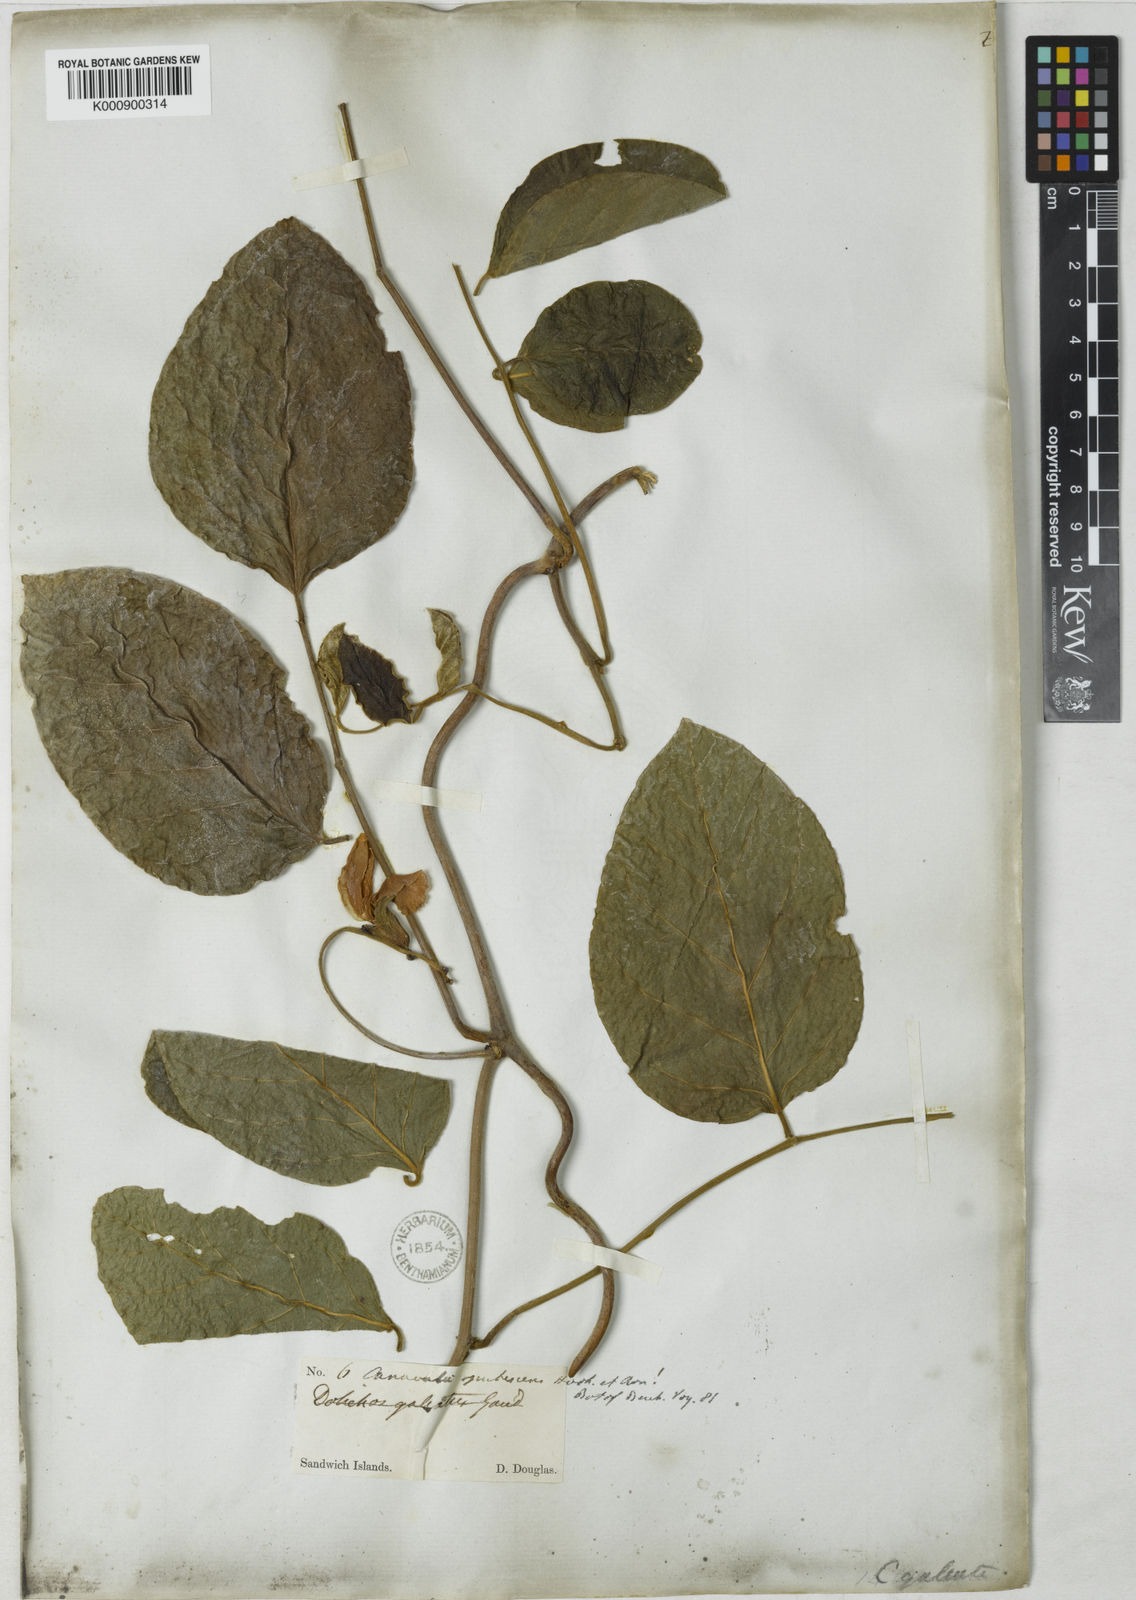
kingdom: Plantae
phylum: Tracheophyta
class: Magnoliopsida
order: Fabales
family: Fabaceae
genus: Canavalia
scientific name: Canavalia
